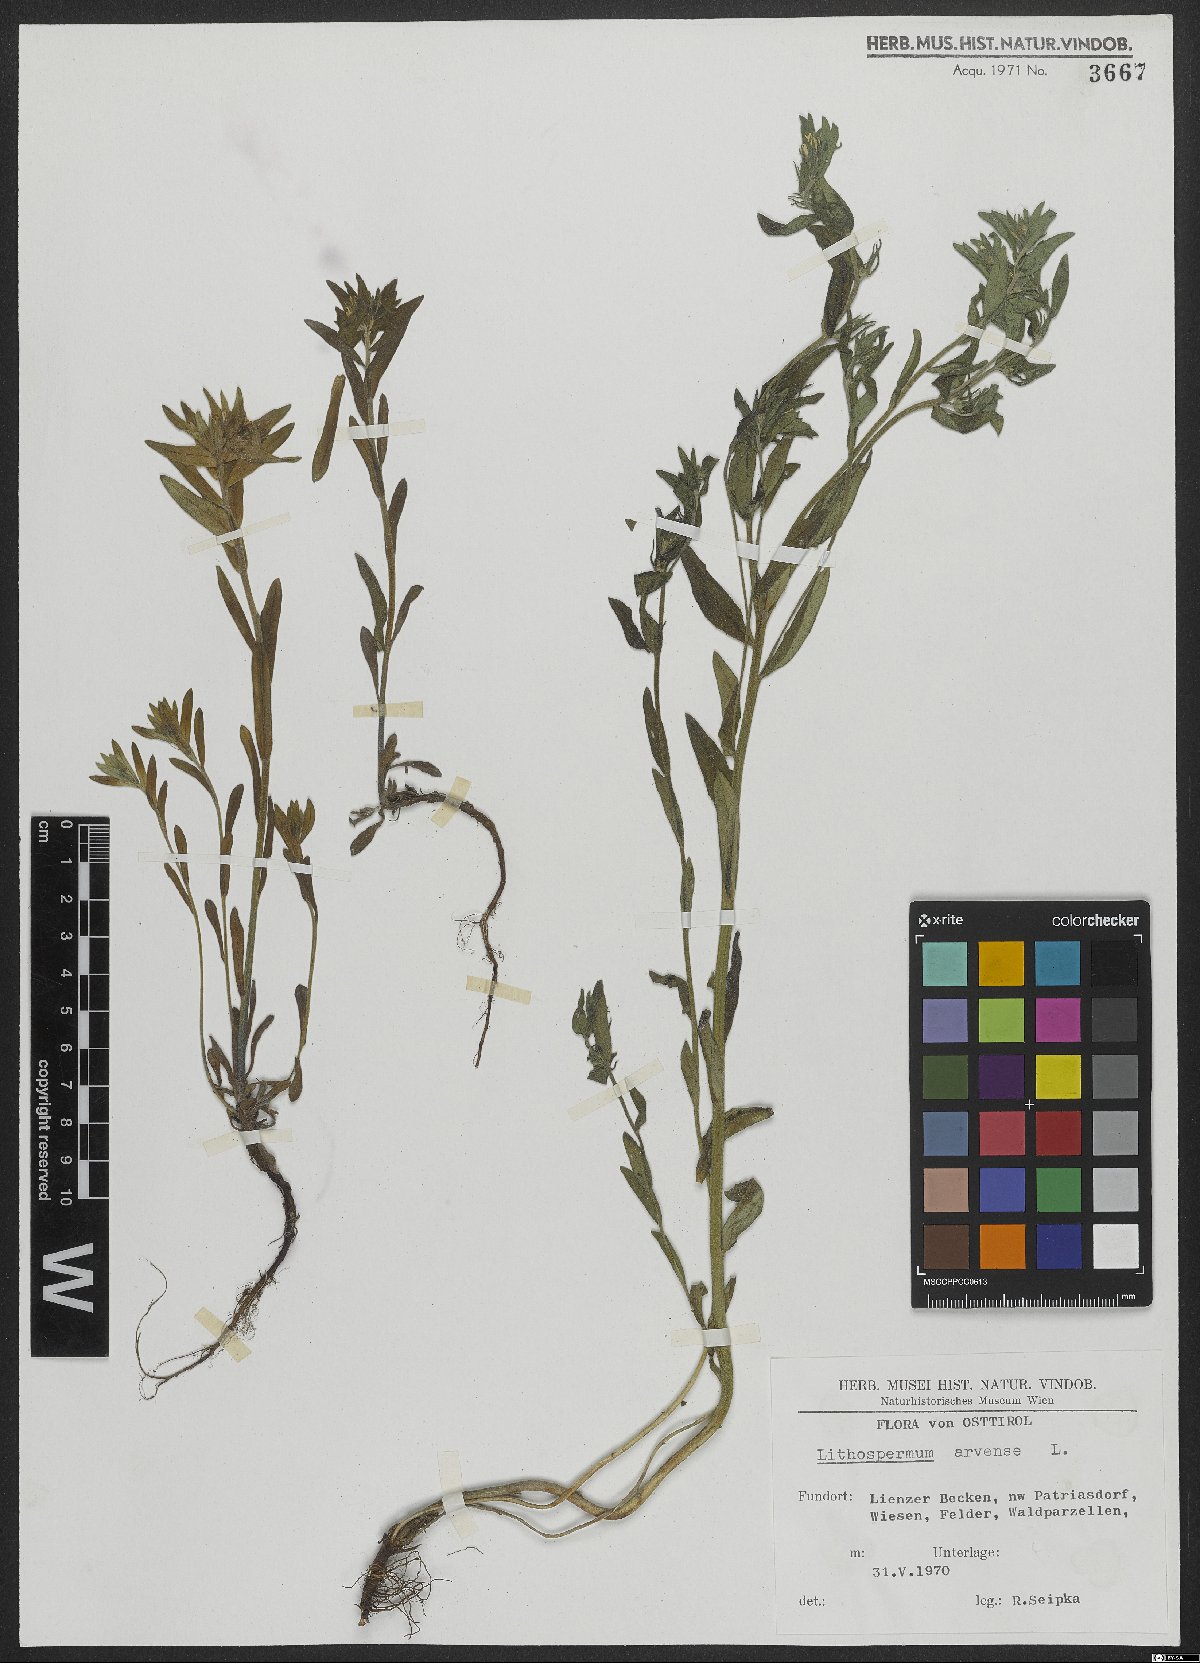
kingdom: Plantae
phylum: Tracheophyta
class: Magnoliopsida
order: Boraginales
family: Boraginaceae
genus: Buglossoides
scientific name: Buglossoides arvensis
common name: Corn gromwell
